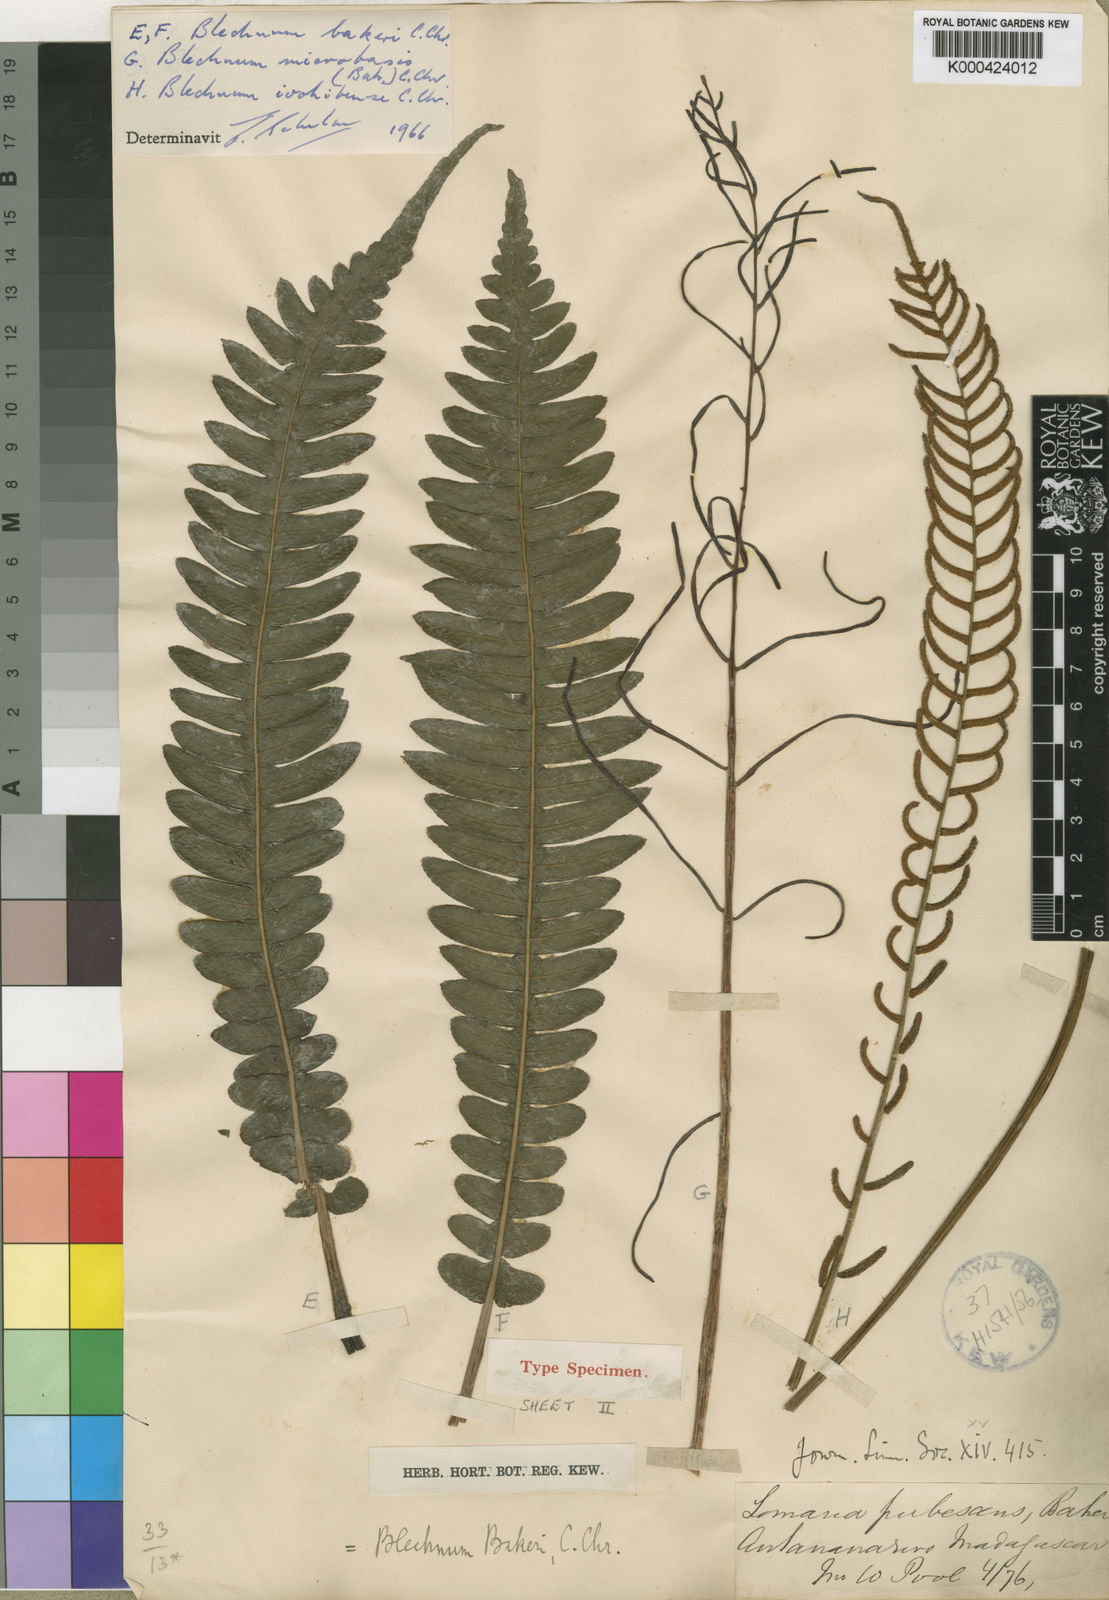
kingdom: Plantae
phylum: Tracheophyta
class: Polypodiopsida
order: Polypodiales
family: Blechnaceae
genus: Cranfillia
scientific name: Cranfillia bakeri
